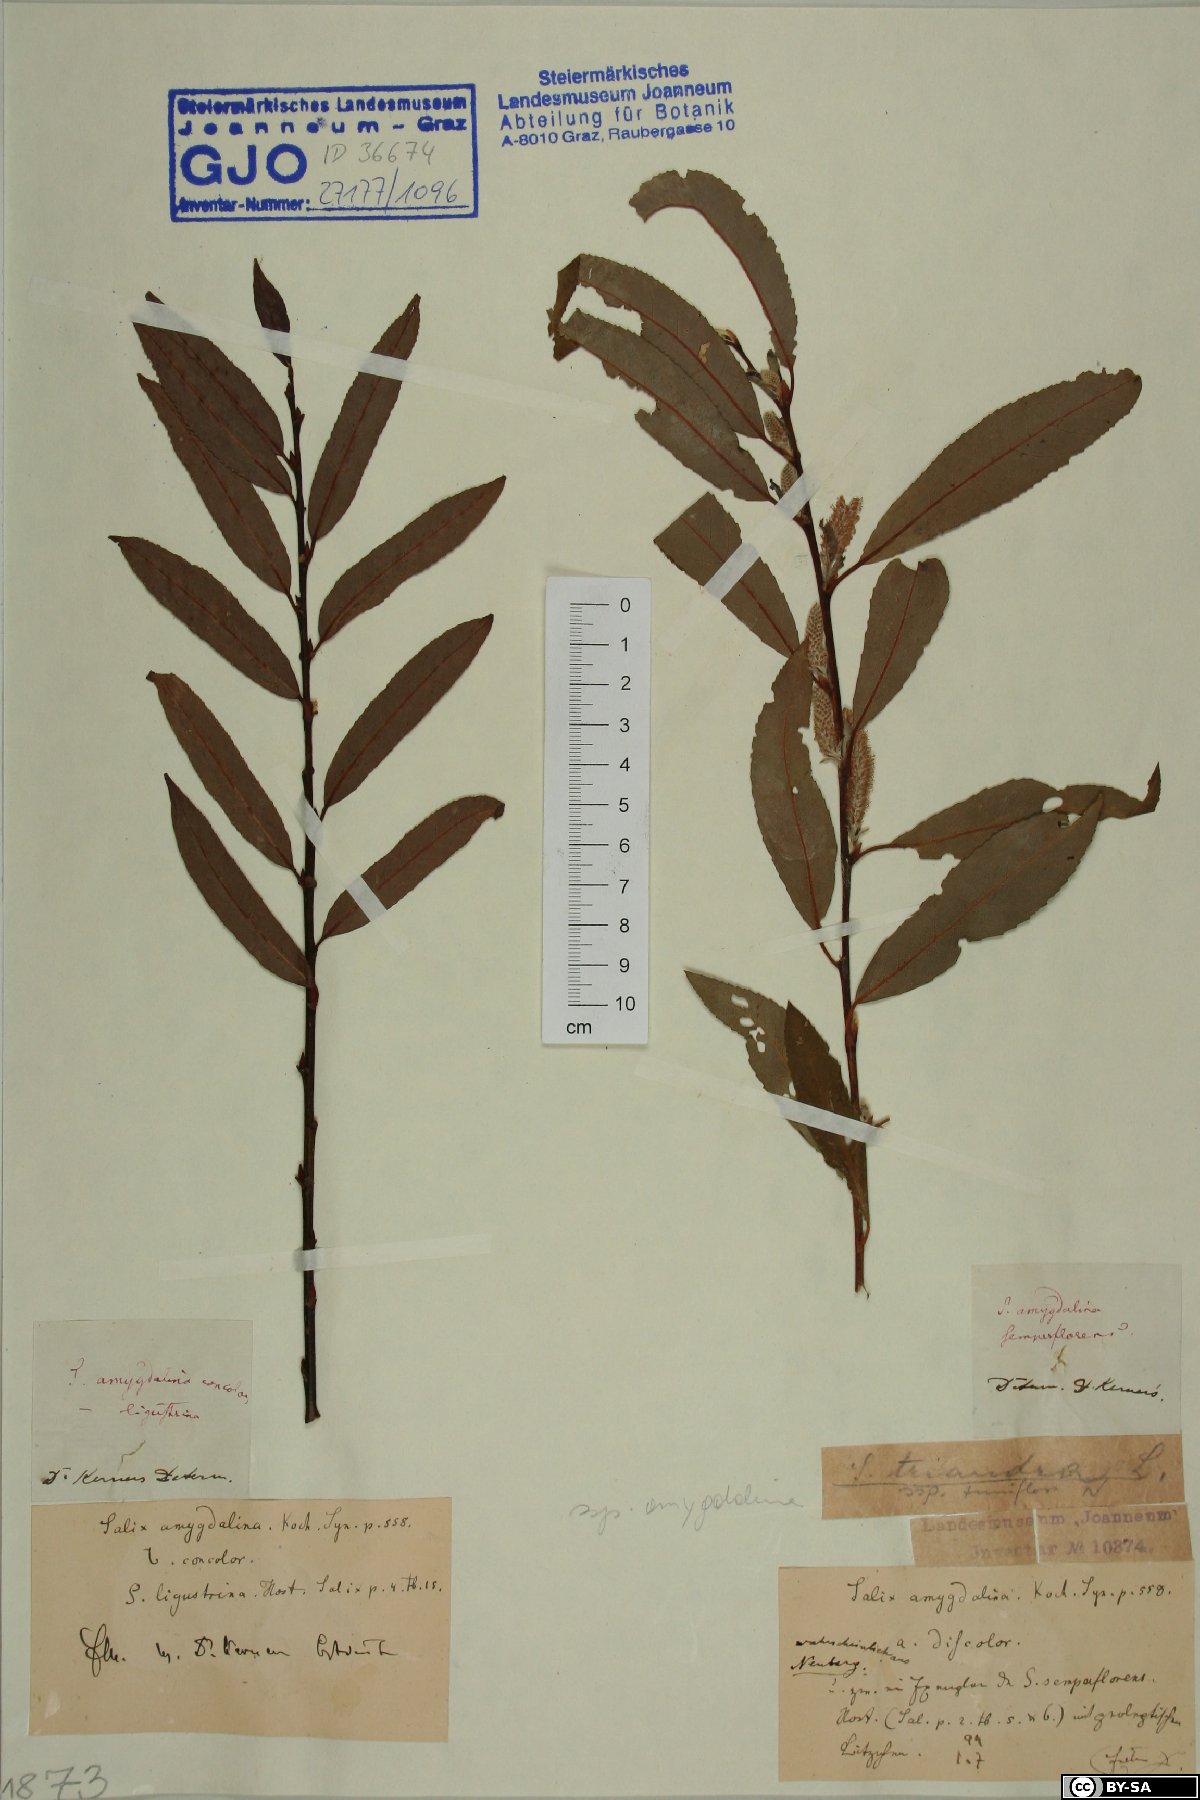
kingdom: Plantae
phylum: Tracheophyta
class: Magnoliopsida
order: Malpighiales
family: Salicaceae
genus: Salix
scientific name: Salix triandra
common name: Almond willow
